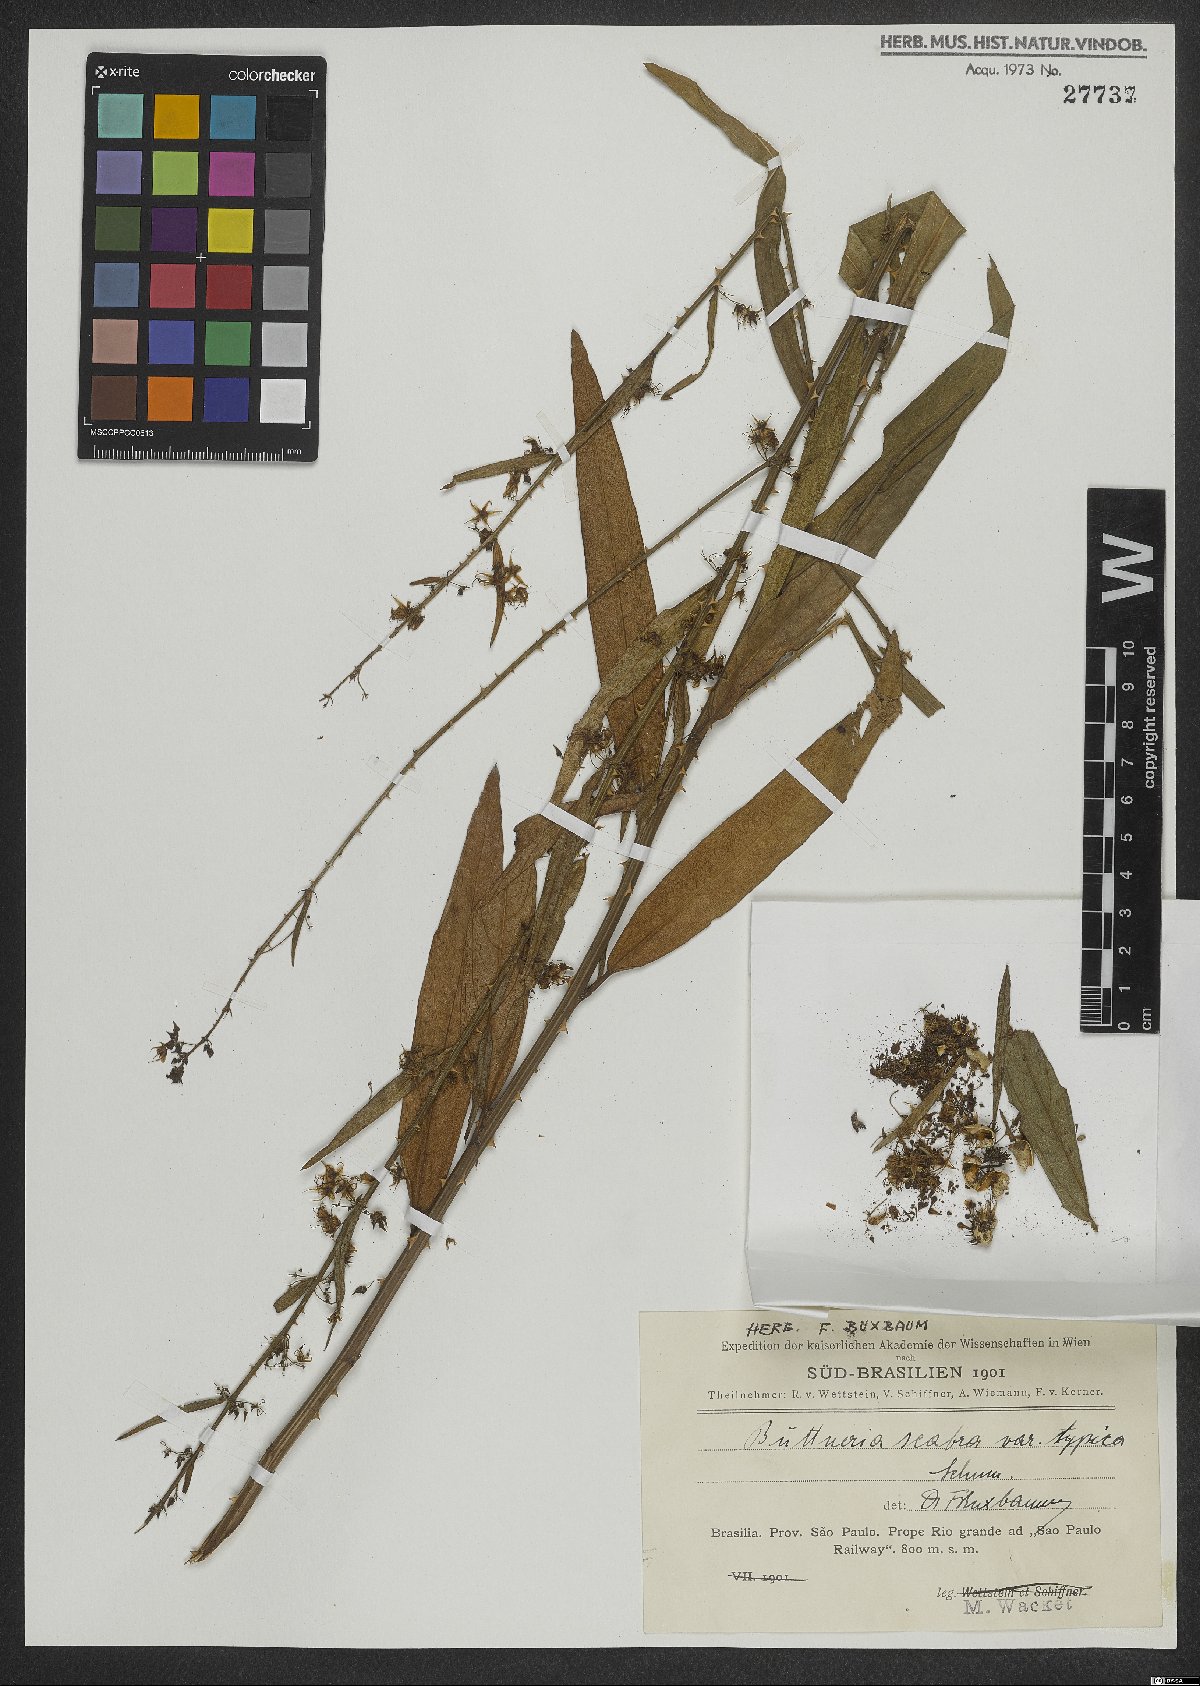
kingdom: Plantae
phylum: Tracheophyta
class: Magnoliopsida
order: Malvales
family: Malvaceae
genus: Byttneria
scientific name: Byttneria scabra
